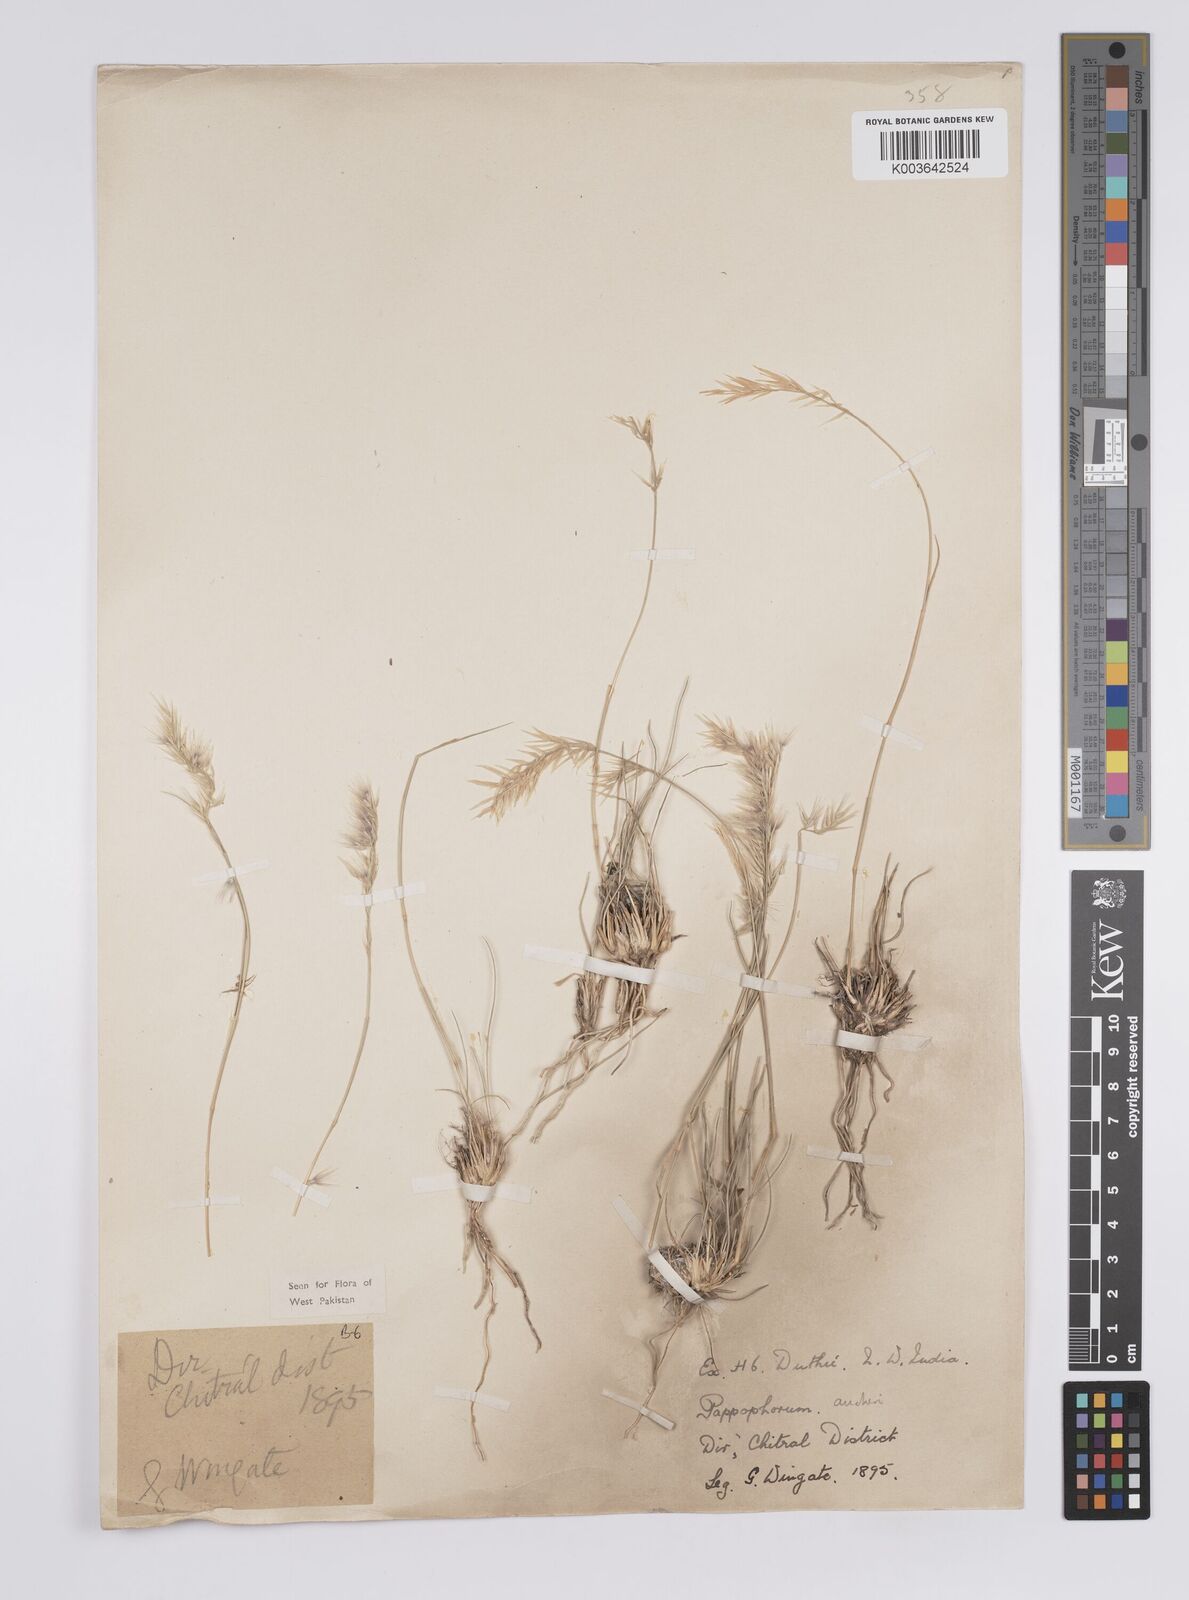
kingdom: Plantae
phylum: Tracheophyta
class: Liliopsida
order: Poales
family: Poaceae
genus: Enneapogon
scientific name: Enneapogon persicus
